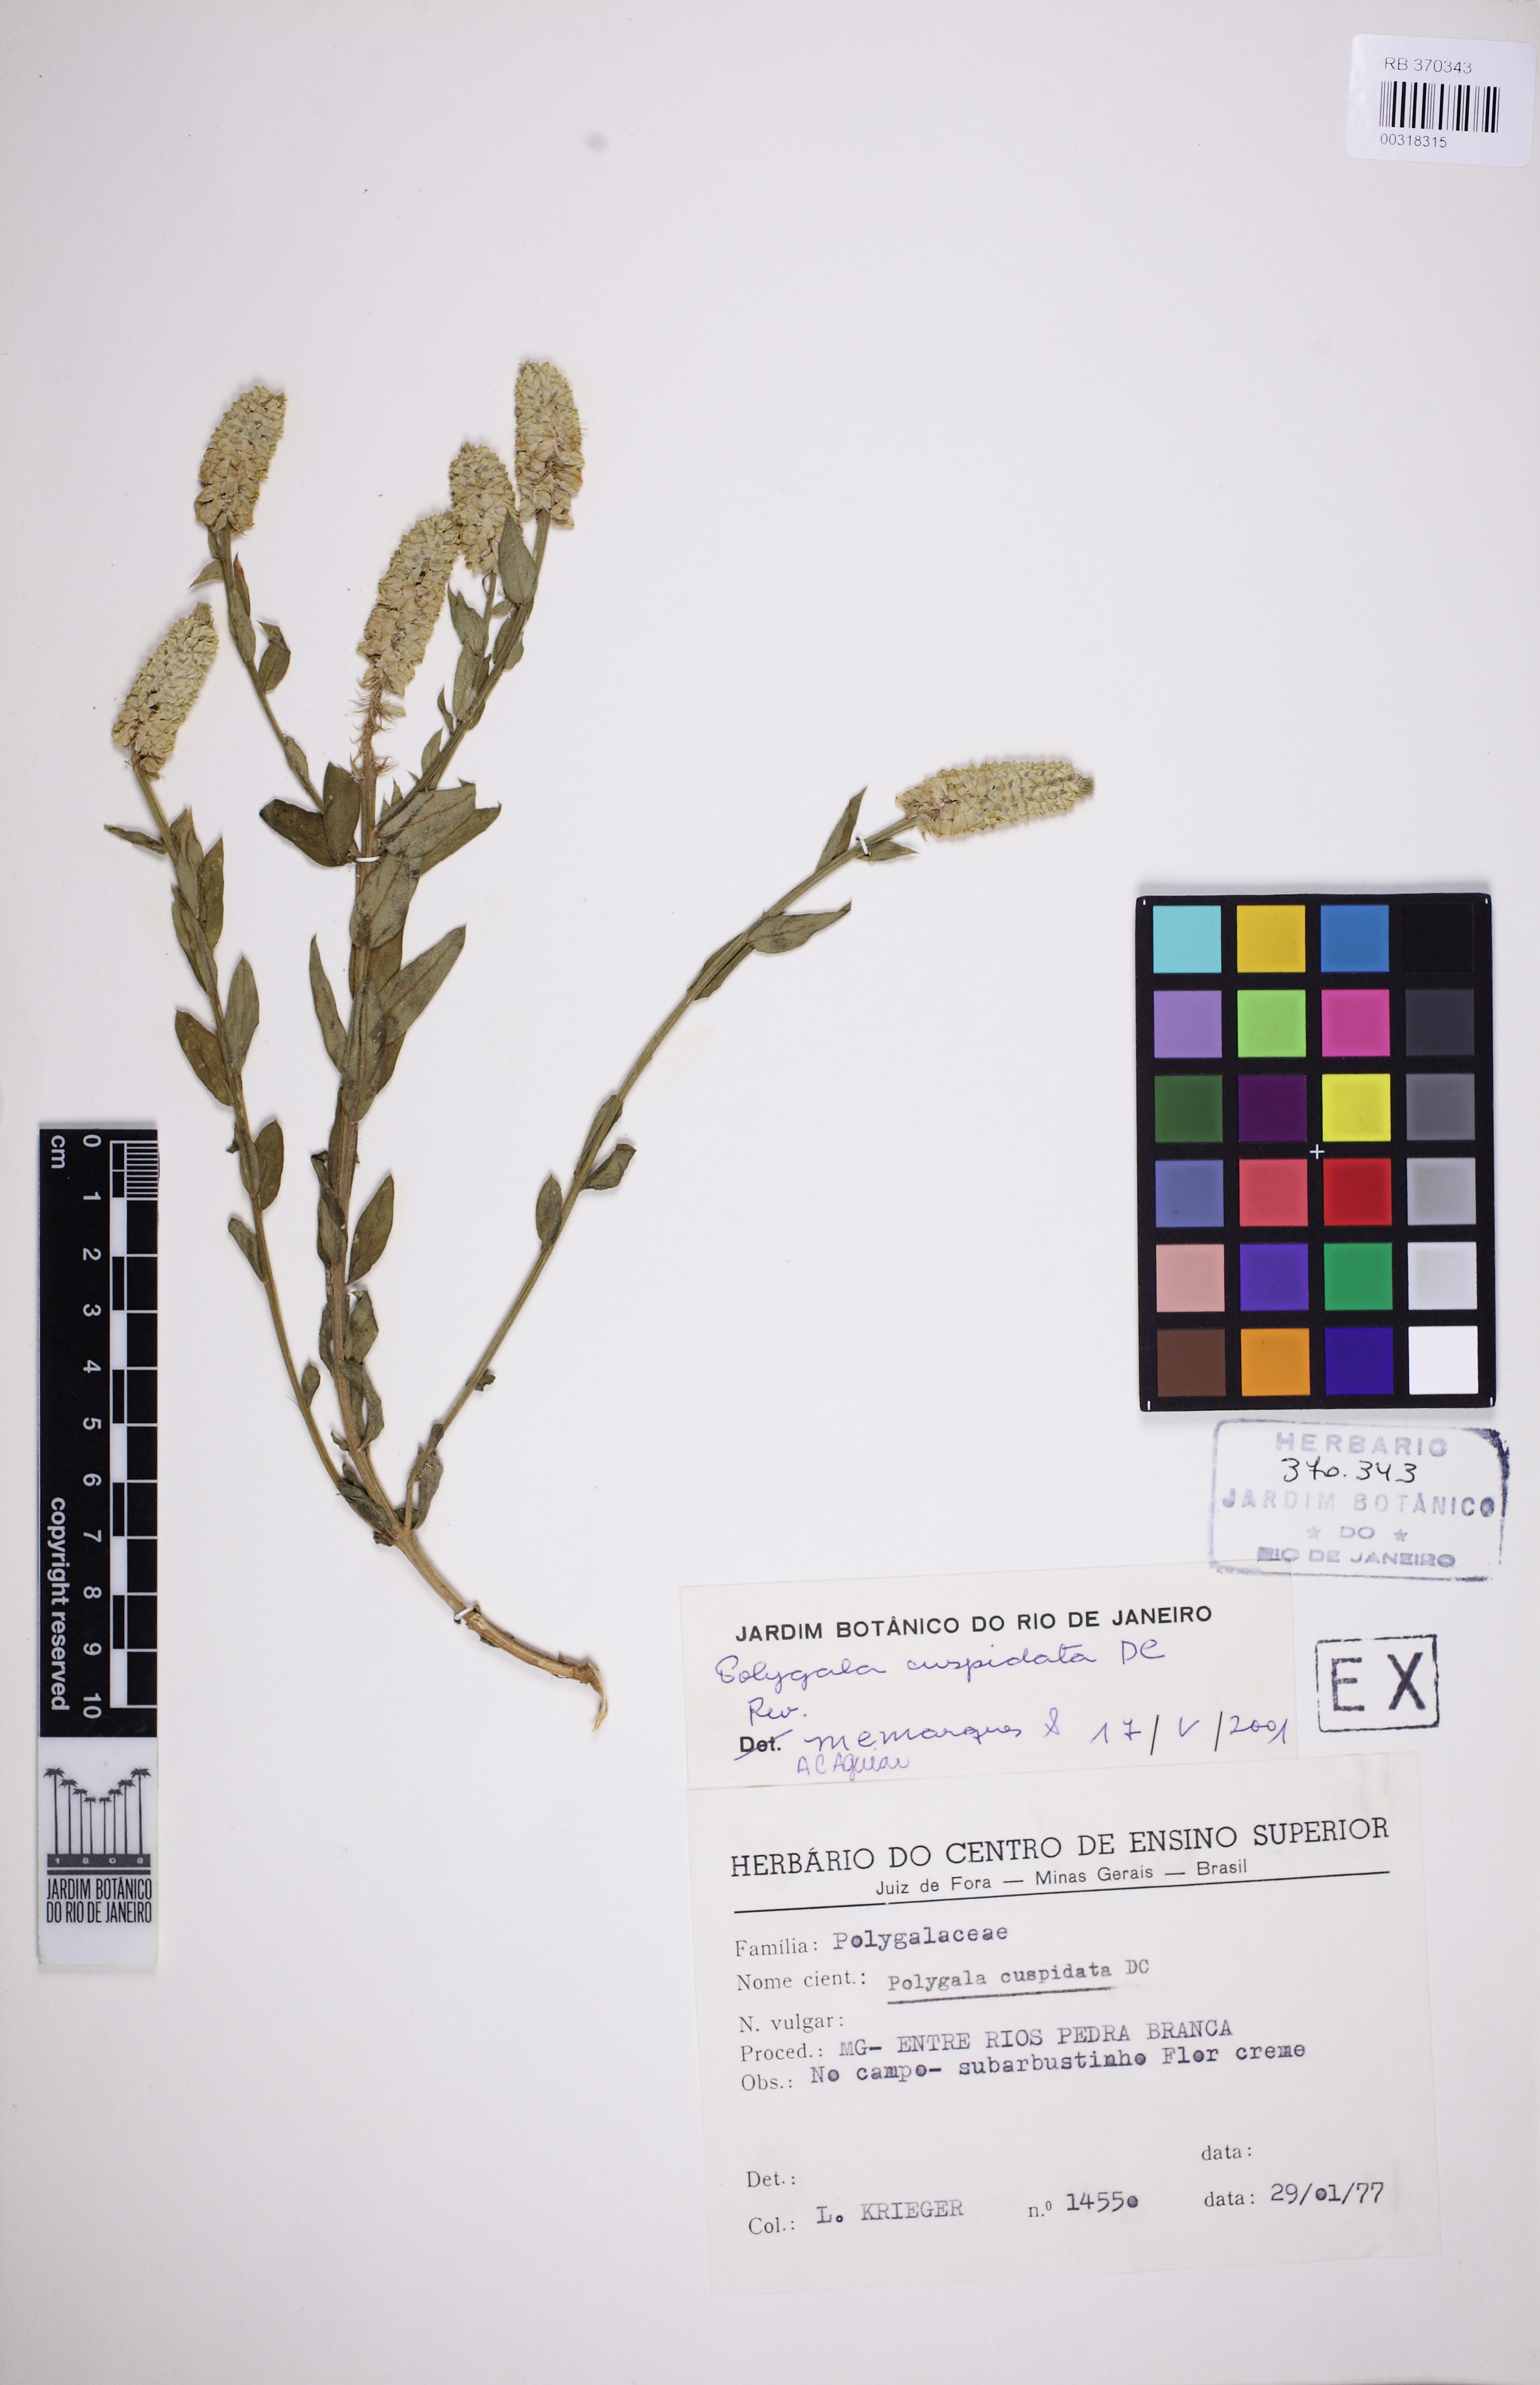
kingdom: Plantae
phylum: Tracheophyta
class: Magnoliopsida
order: Fabales
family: Polygalaceae
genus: Polygala
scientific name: Polygala cuspidata
